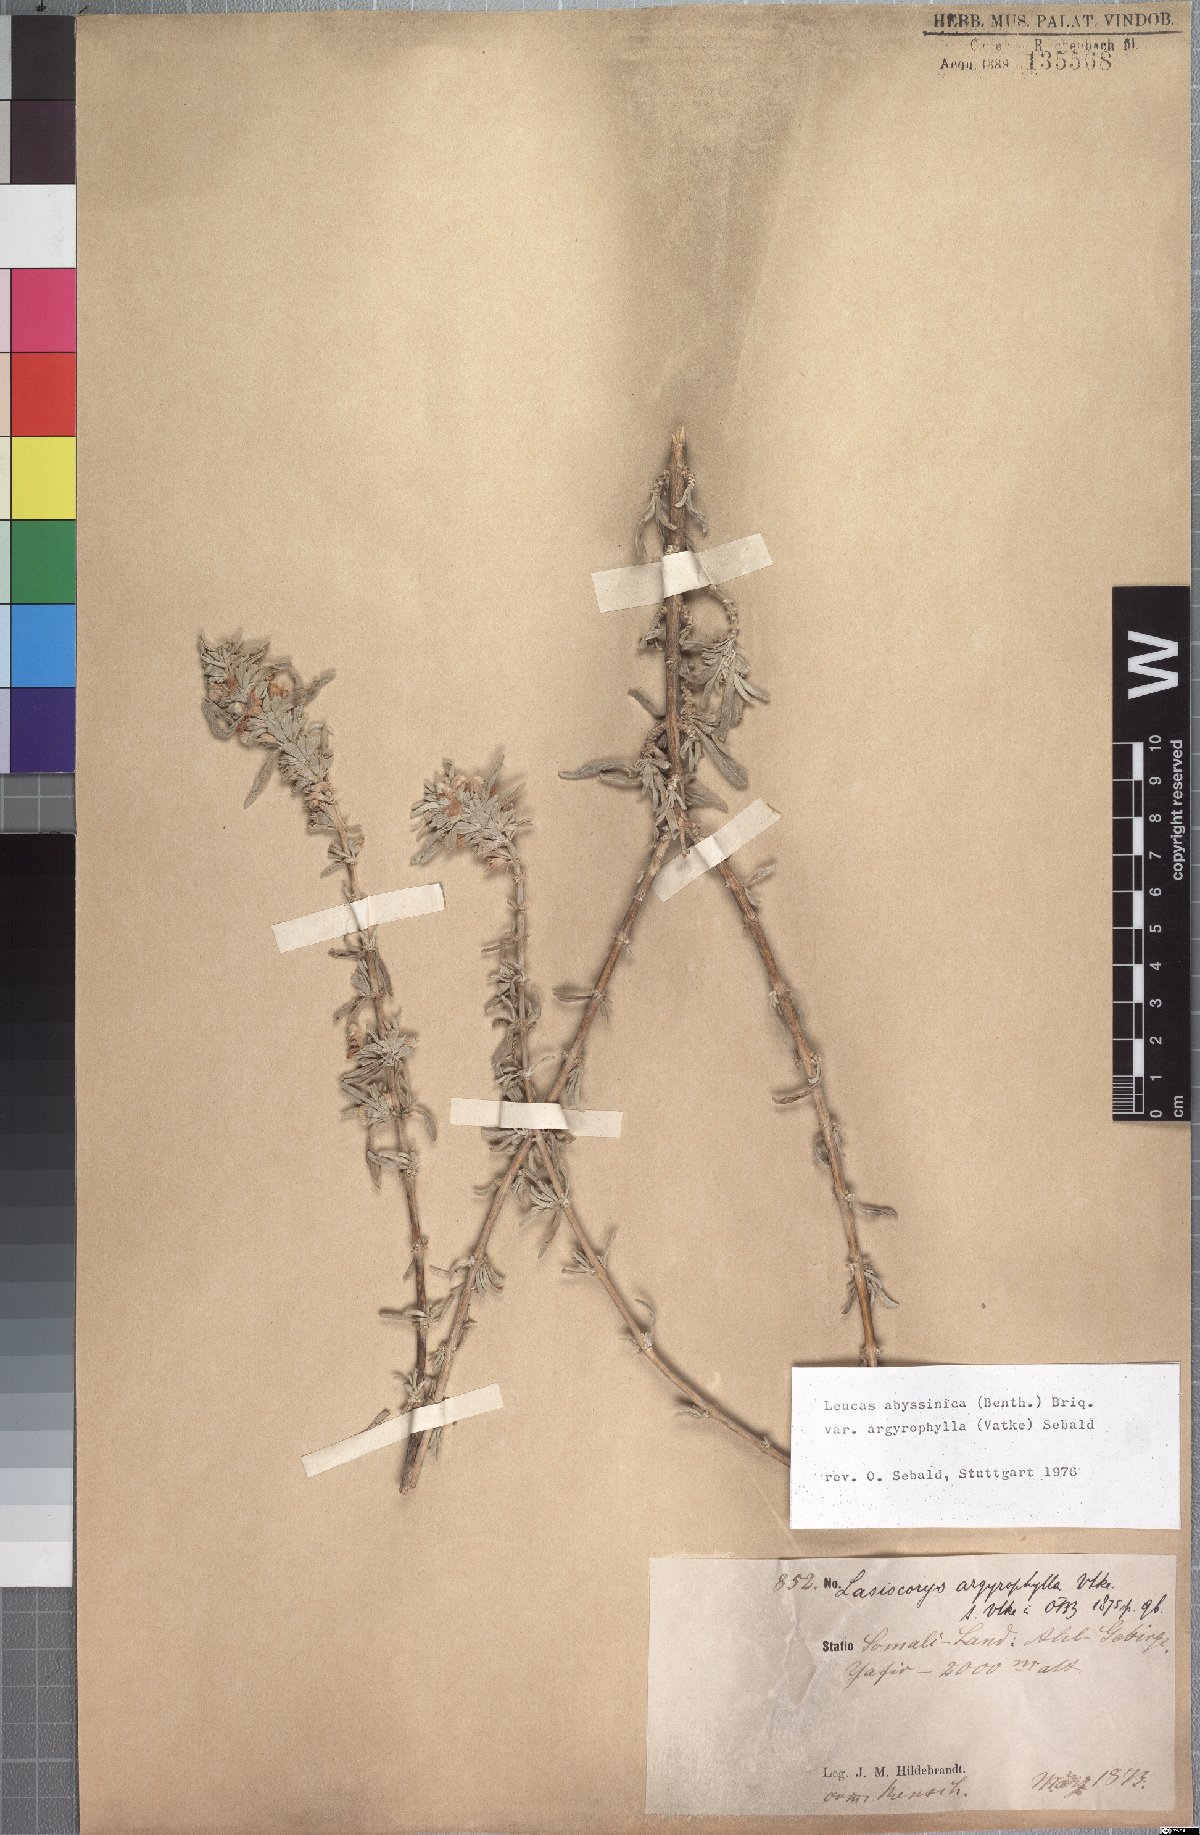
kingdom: Plantae
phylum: Tracheophyta
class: Magnoliopsida
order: Lamiales
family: Lamiaceae
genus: Leucas
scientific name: Leucas abyssinica
